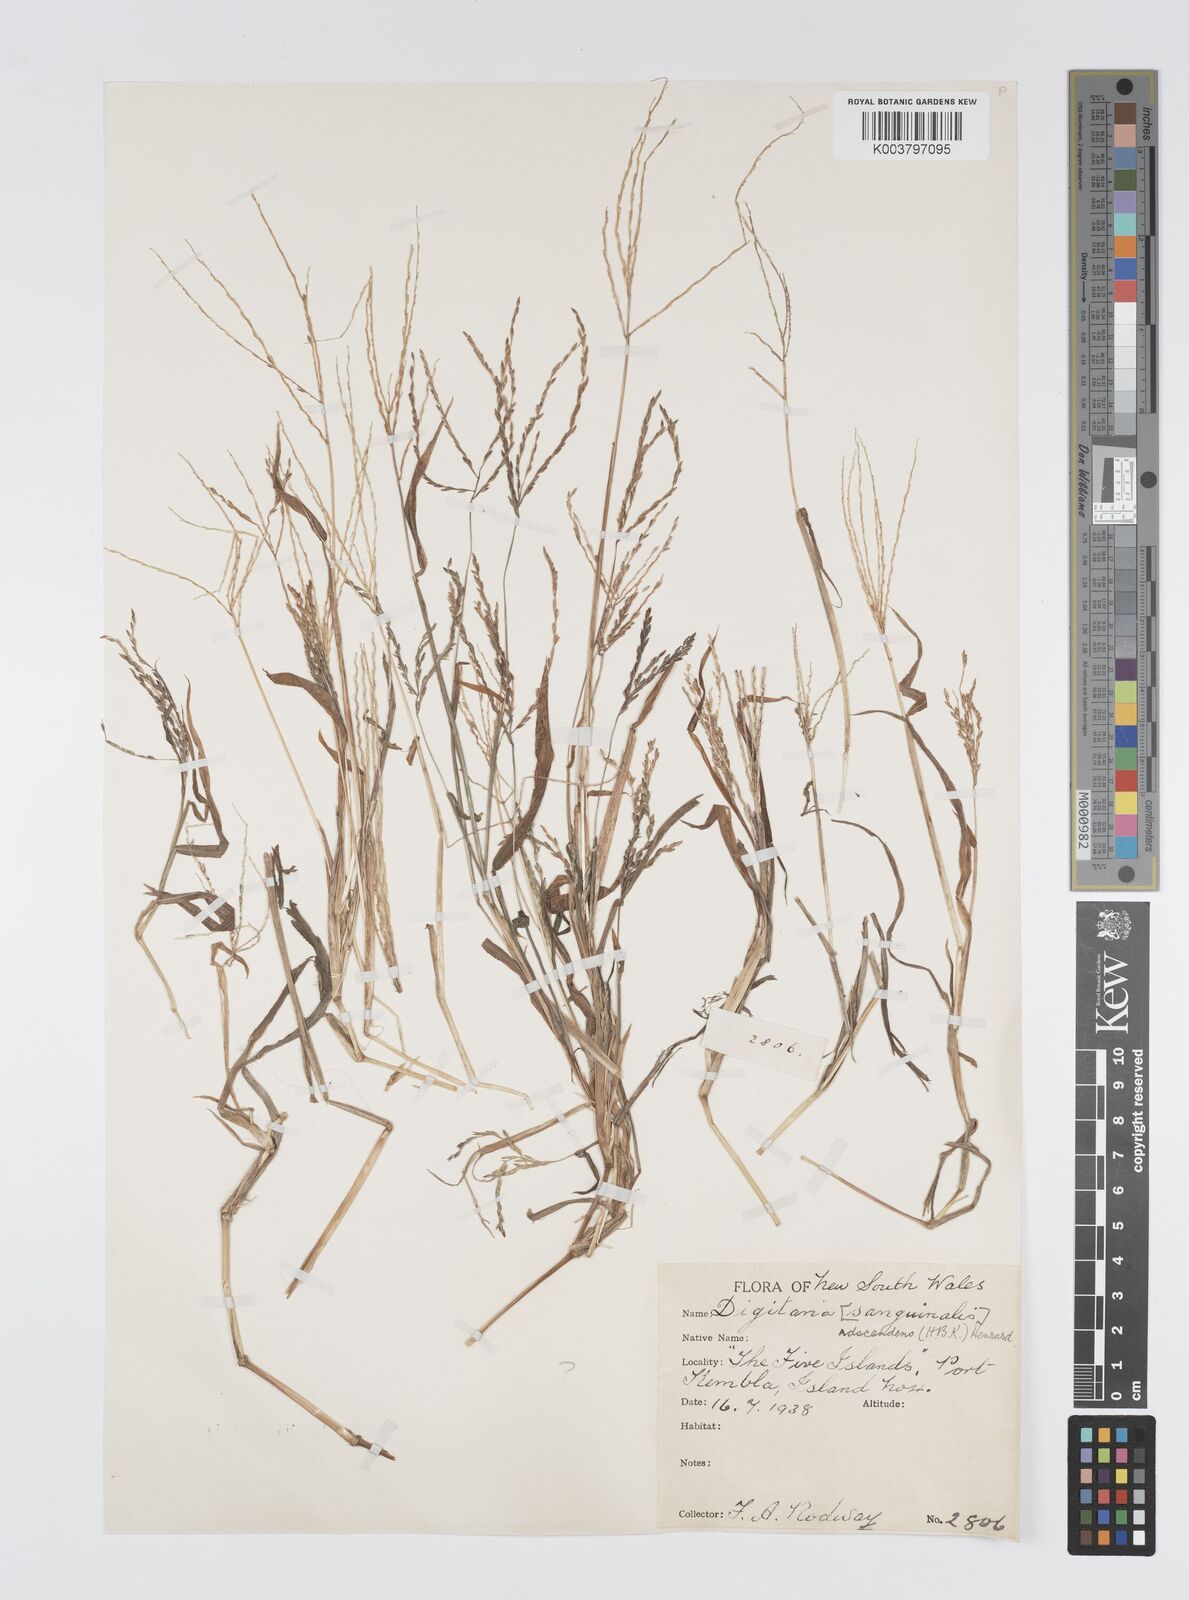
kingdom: Plantae
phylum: Tracheophyta
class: Liliopsida
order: Poales
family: Poaceae
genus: Digitaria
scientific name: Digitaria ciliaris
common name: Tropical finger-grass
